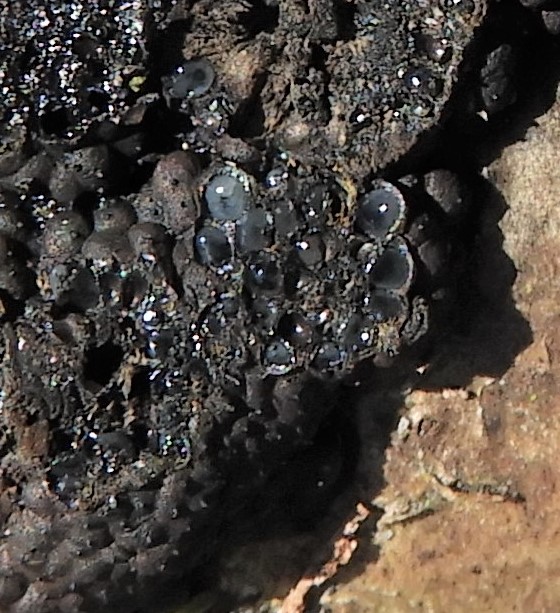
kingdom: Fungi
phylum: Ascomycota
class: Sordariomycetes
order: Xylariales
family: Hypoxylaceae
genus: Jackrogersella
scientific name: Jackrogersella multiformis
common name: foranderlig kulbær
